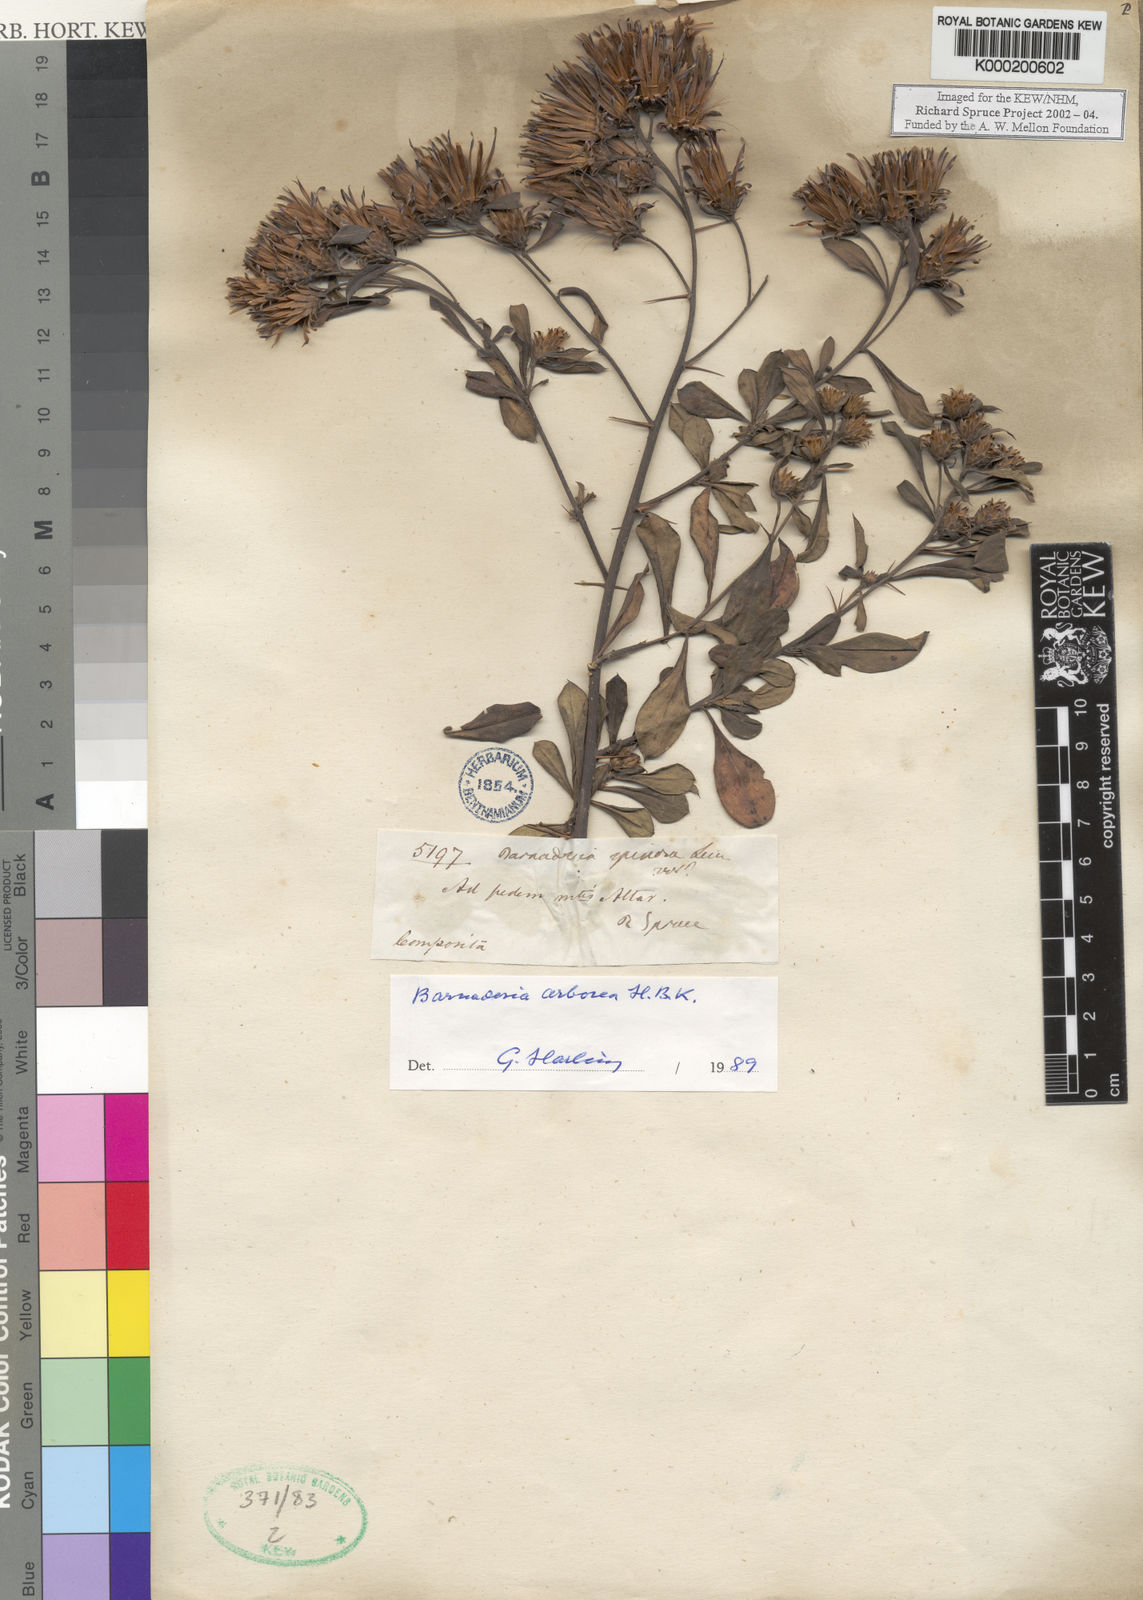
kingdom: Plantae
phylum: Tracheophyta
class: Magnoliopsida
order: Asterales
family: Asteraceae
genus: Barnadesia
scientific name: Barnadesia
